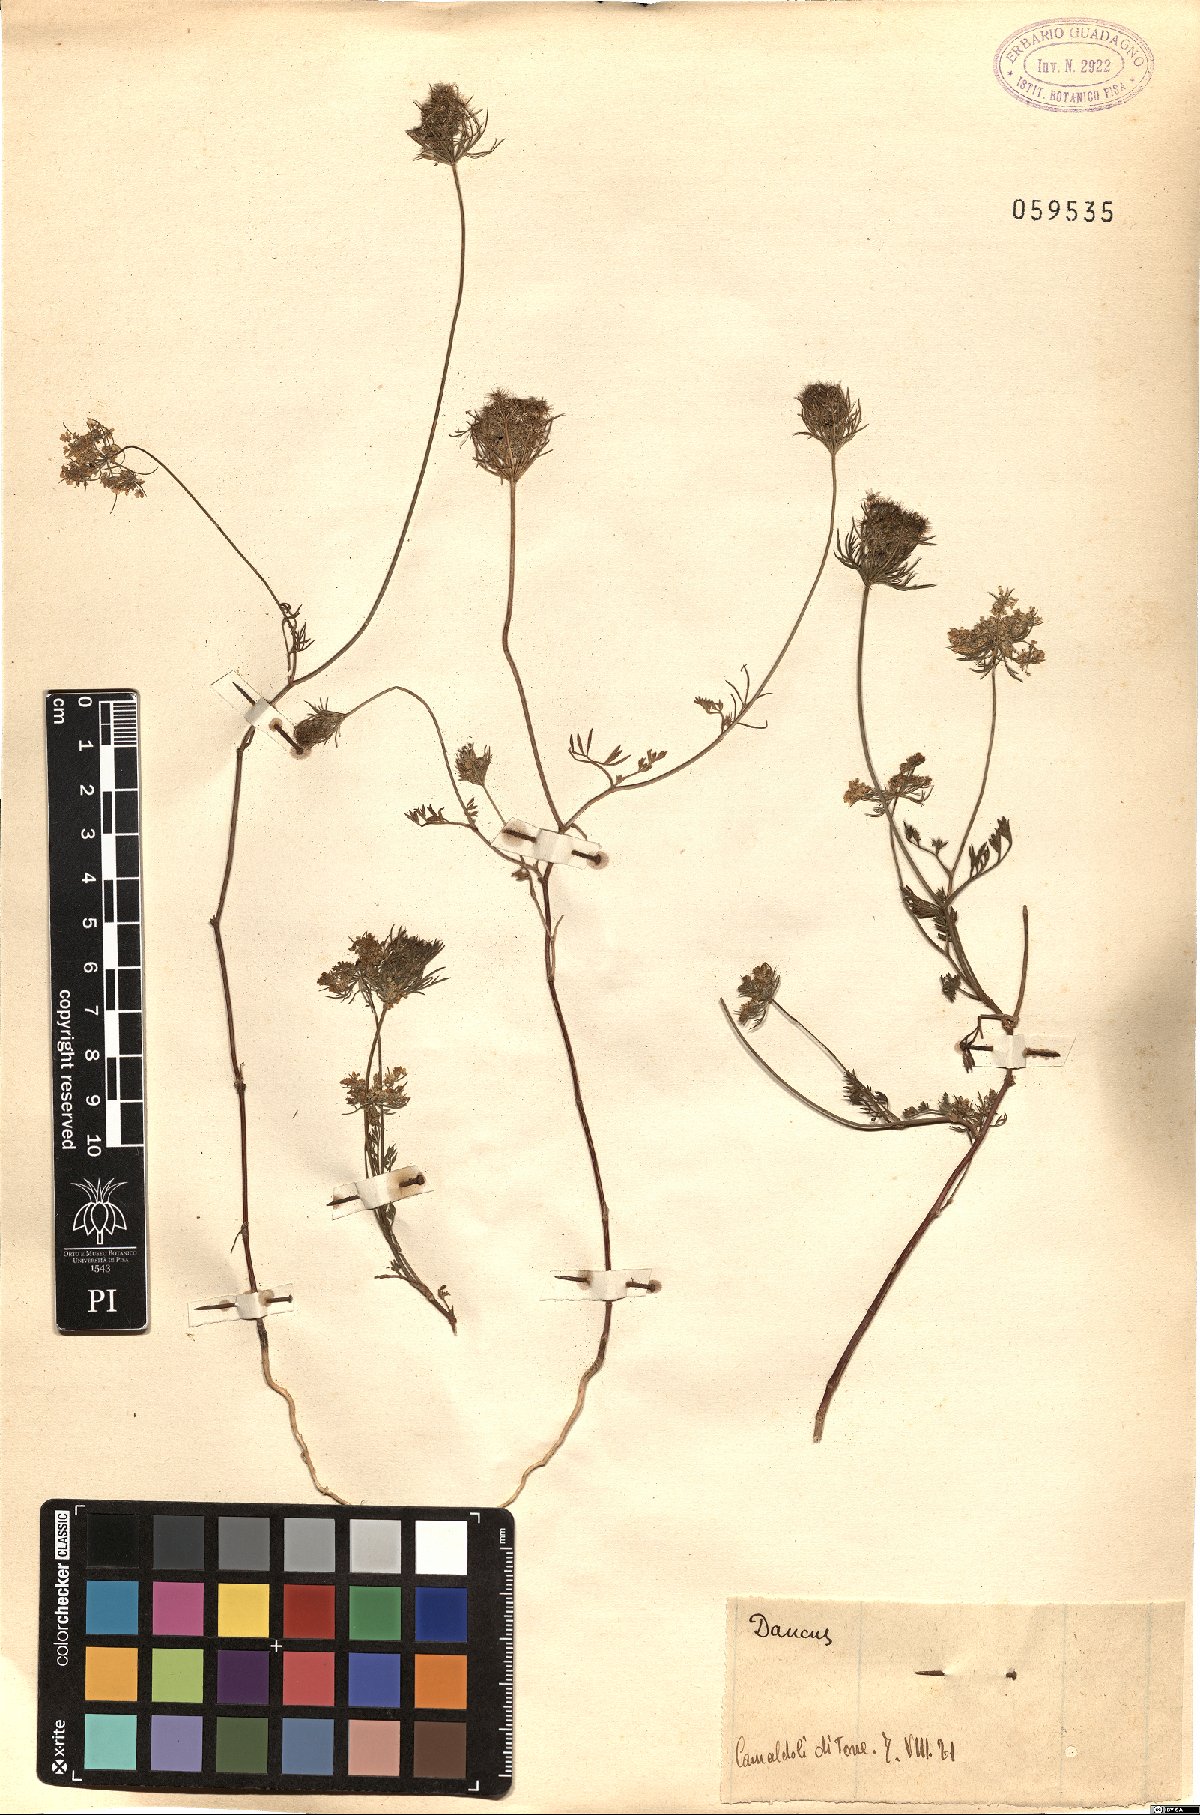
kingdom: Plantae
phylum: Tracheophyta
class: Magnoliopsida
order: Apiales
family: Apiaceae
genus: Daucus
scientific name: Daucus
